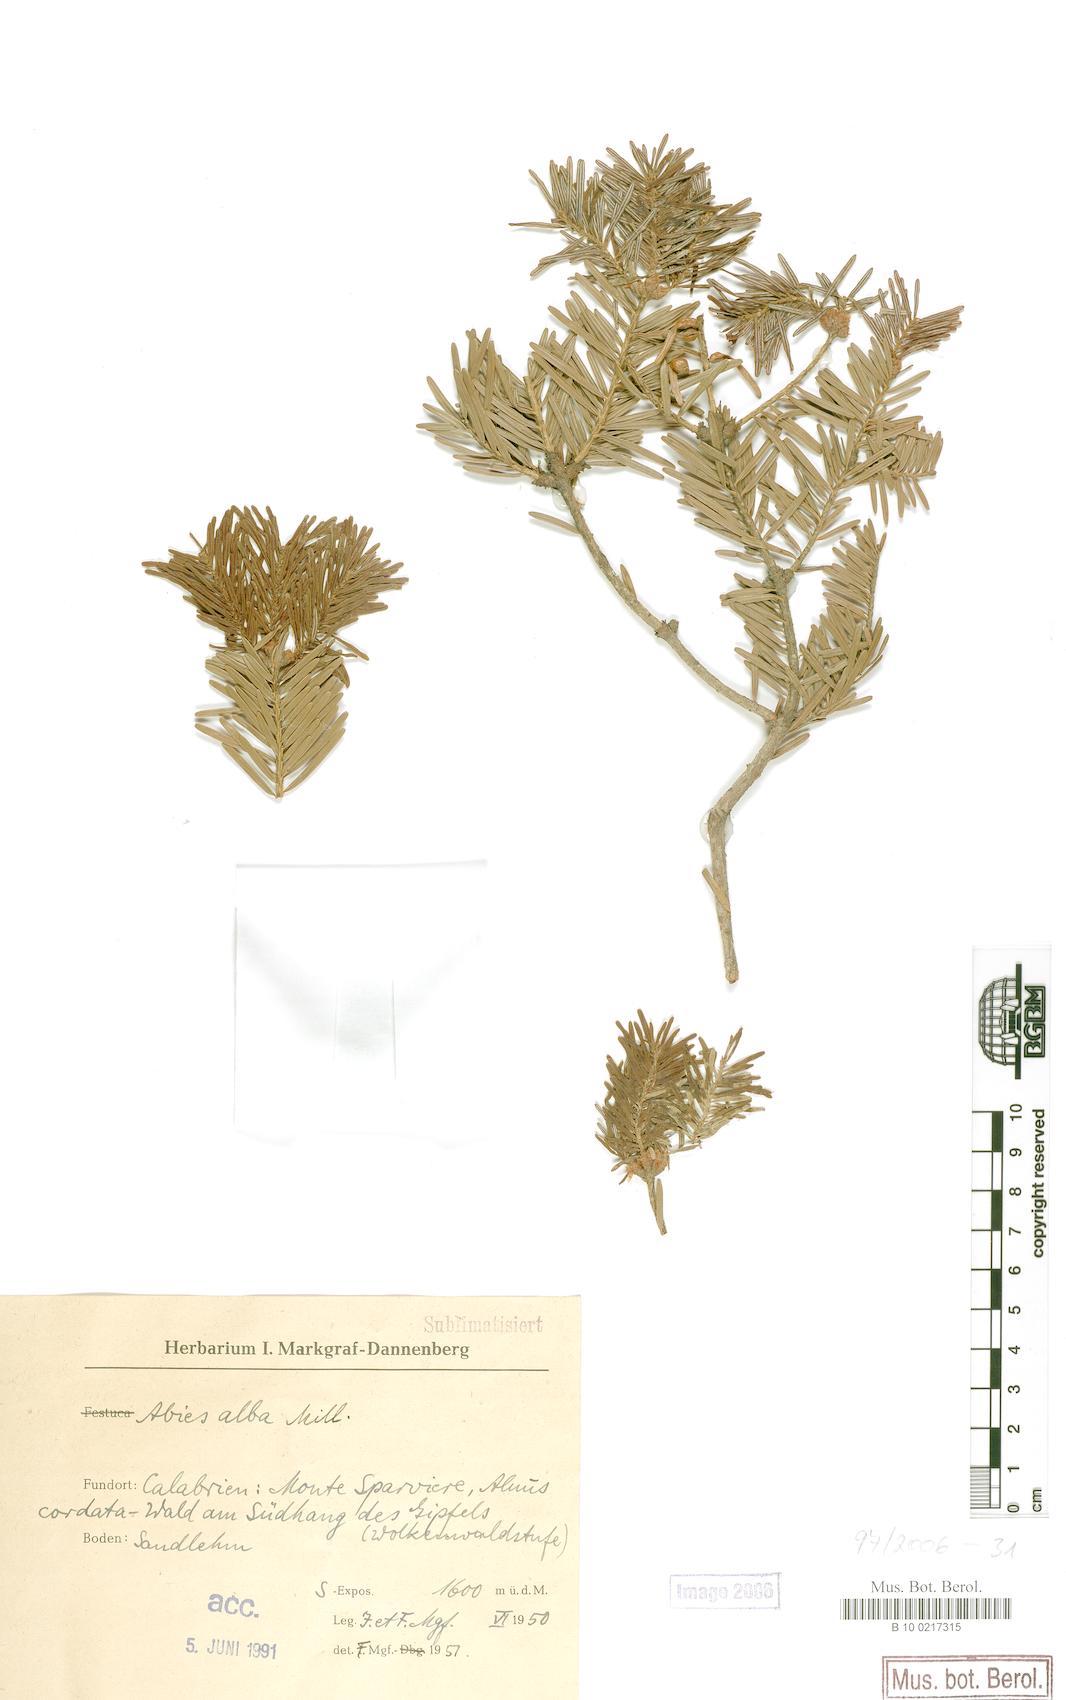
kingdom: Plantae
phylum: Tracheophyta
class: Pinopsida
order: Pinales
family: Pinaceae
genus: Abies
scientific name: Abies alba
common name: Silver fir
